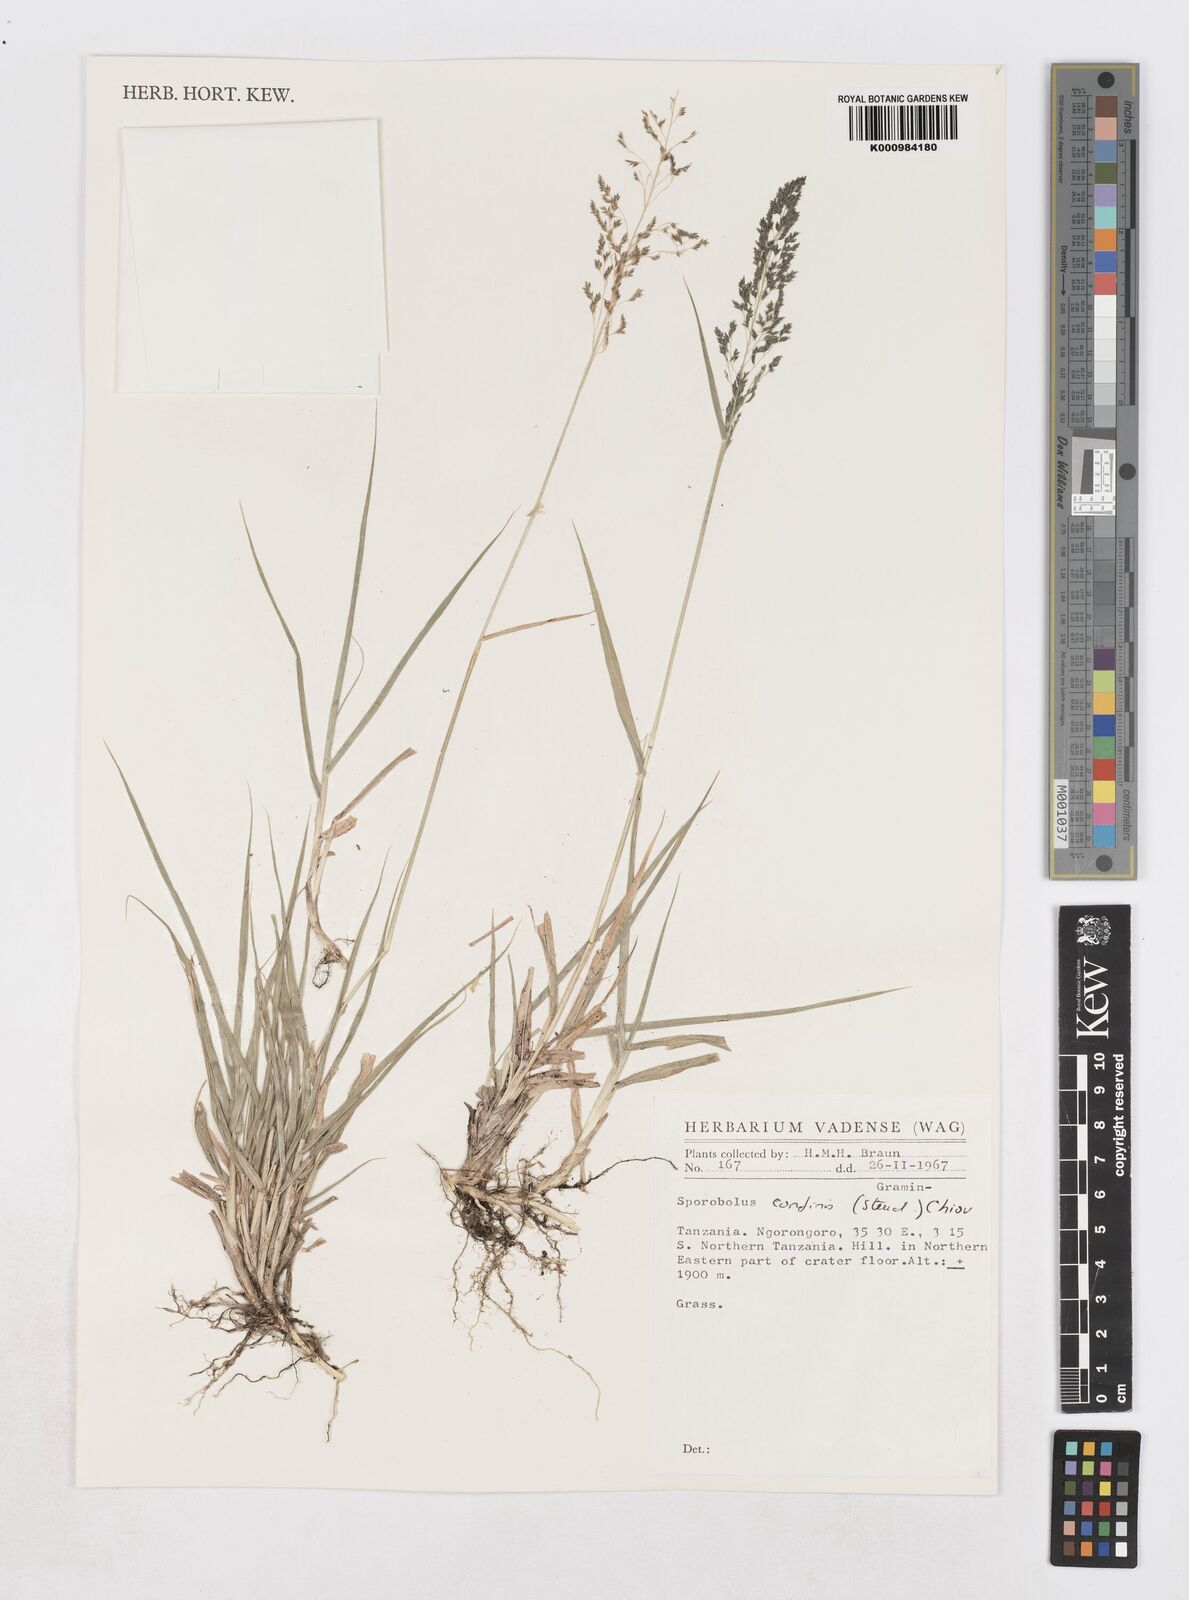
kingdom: Plantae
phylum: Tracheophyta
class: Liliopsida
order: Poales
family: Poaceae
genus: Sporobolus
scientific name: Sporobolus confinis
